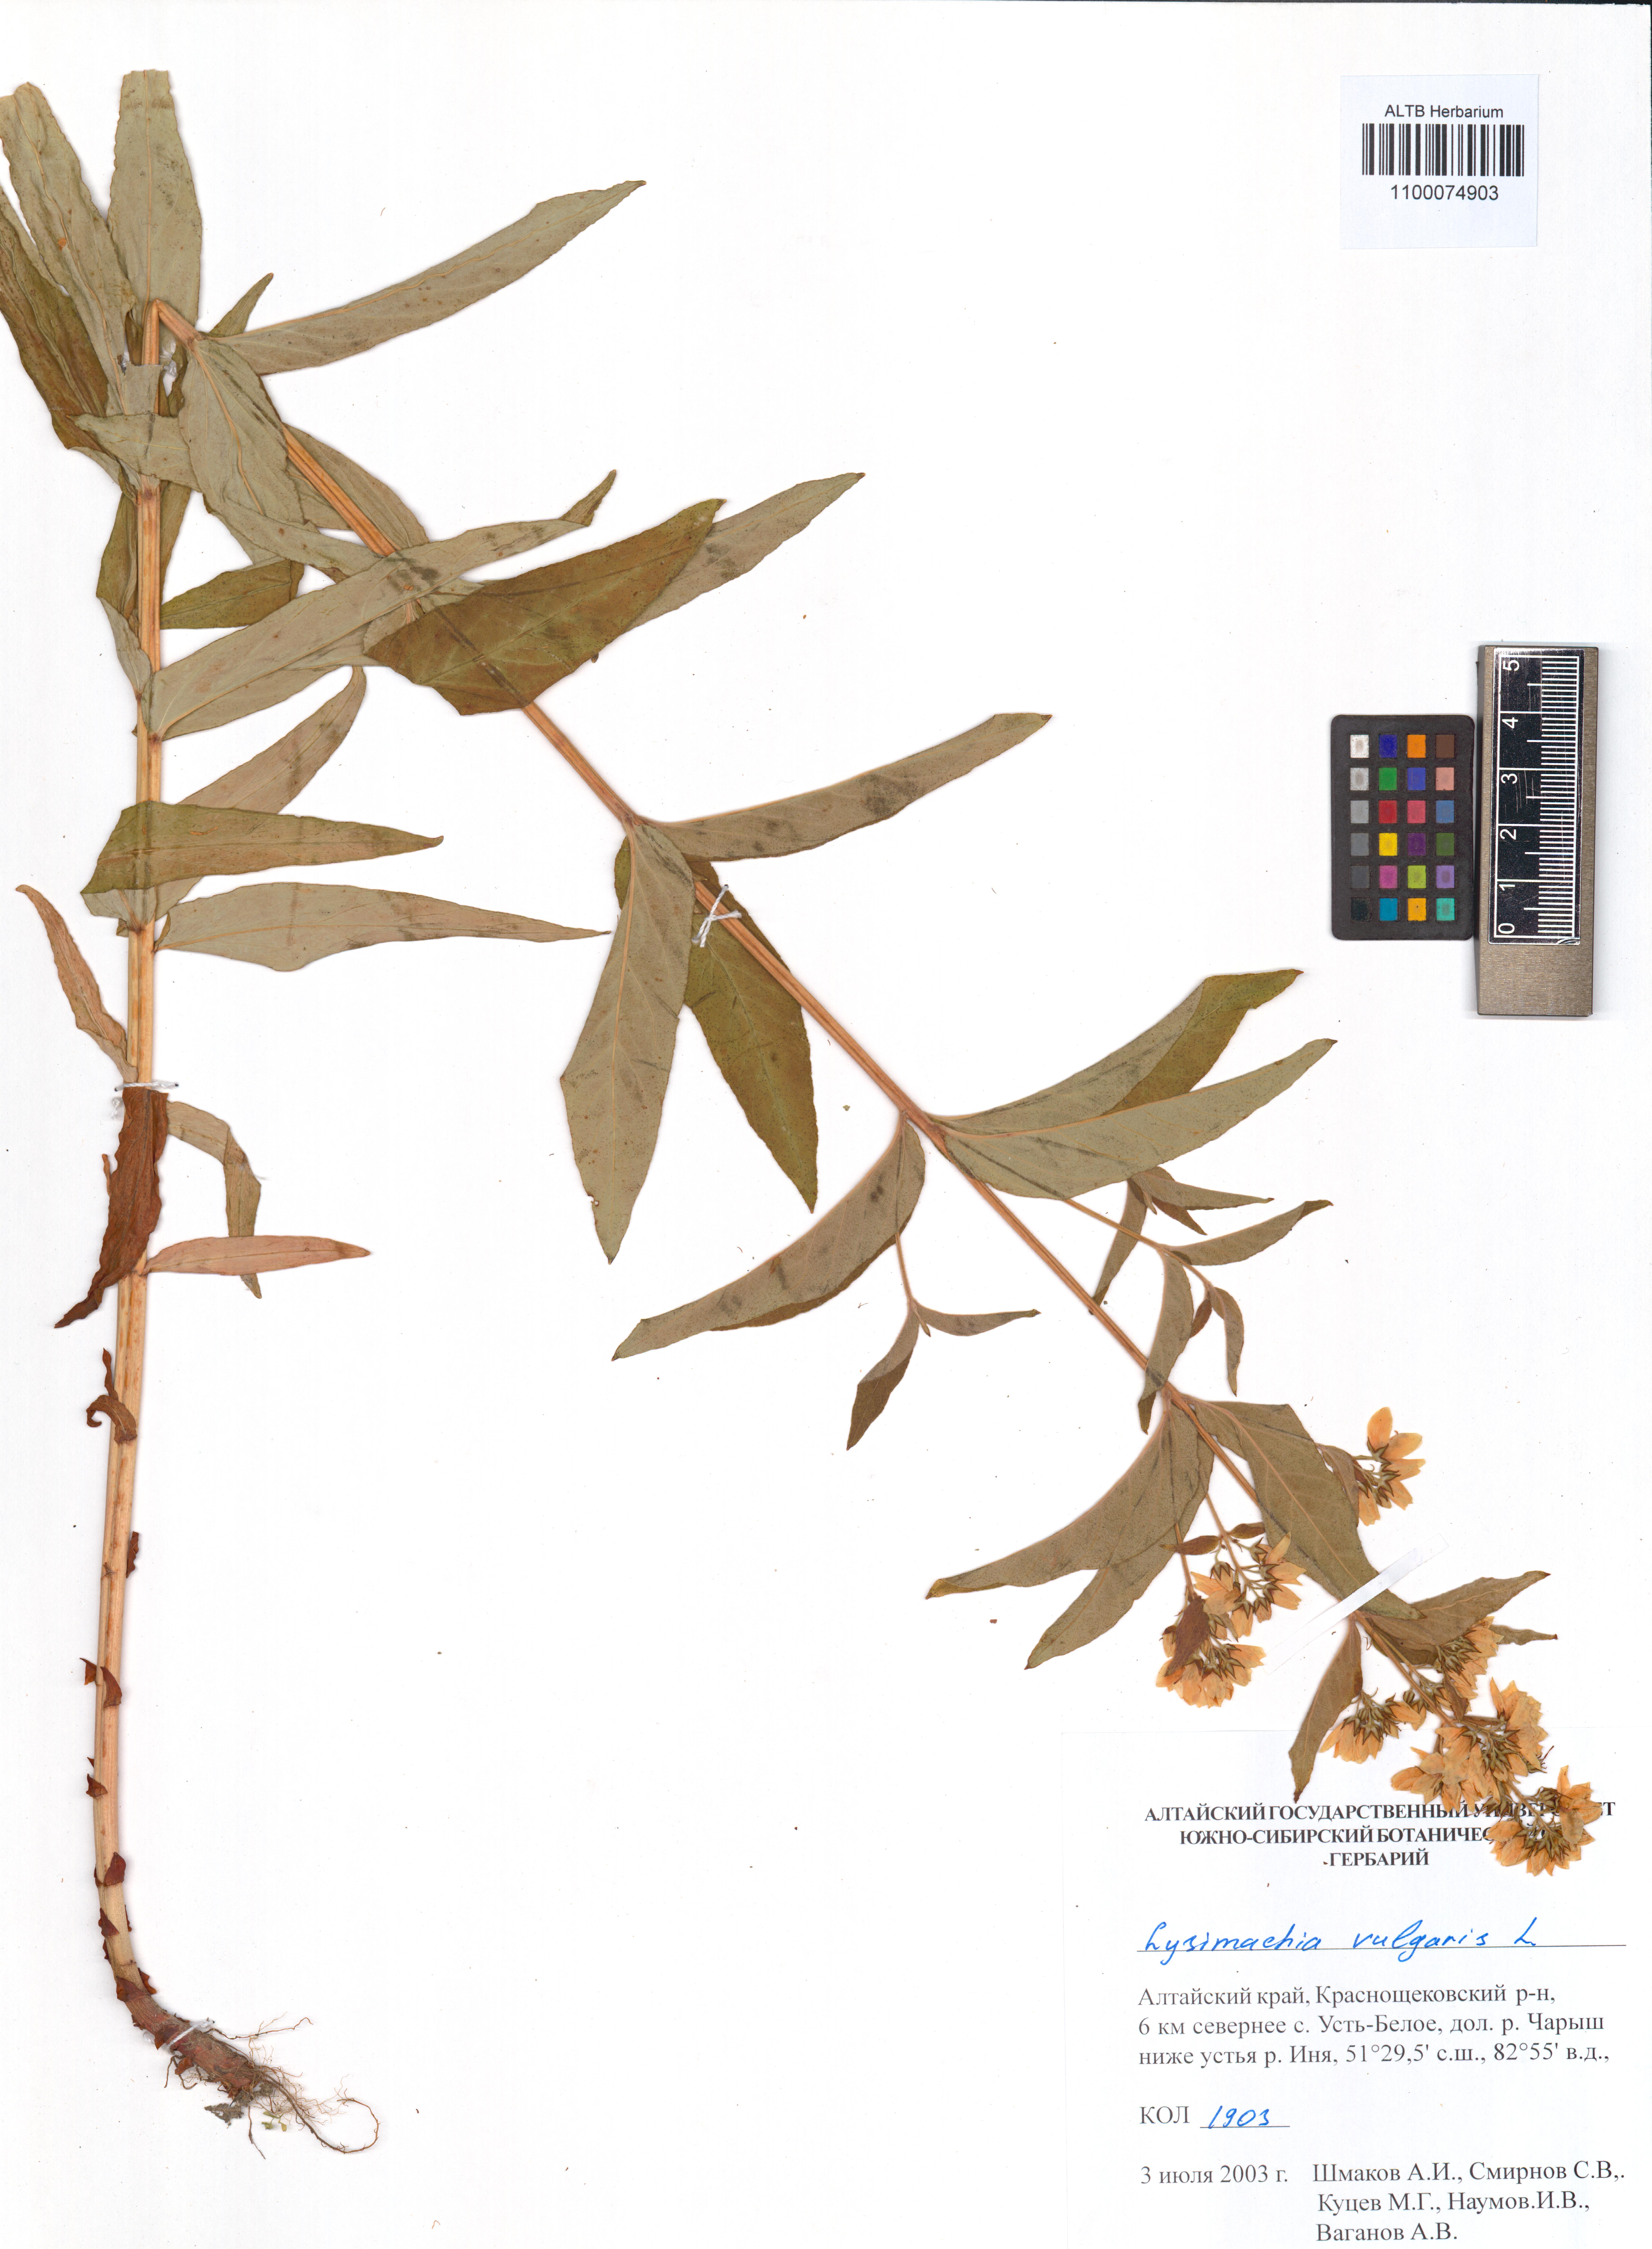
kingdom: Plantae
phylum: Tracheophyta
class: Magnoliopsida
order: Ericales
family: Primulaceae
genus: Lysimachia
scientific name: Lysimachia vulgaris
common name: Yellow loosestrife
